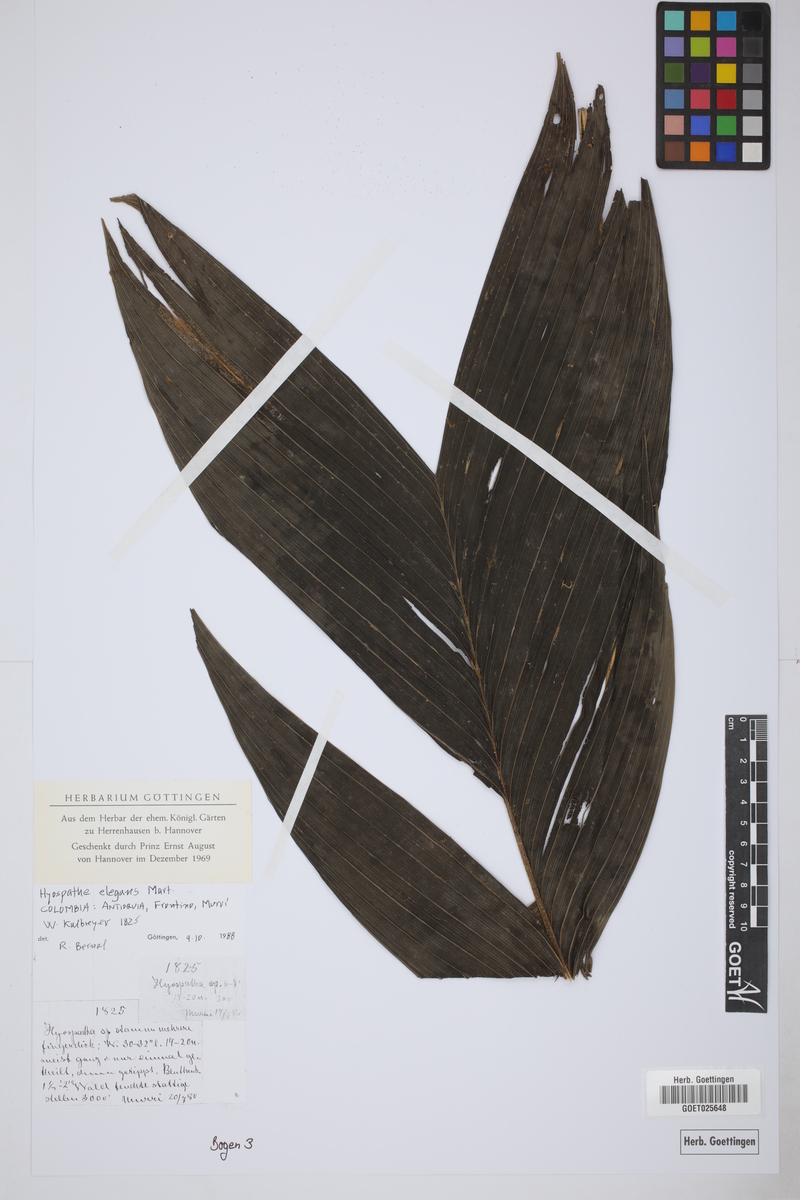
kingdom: Plantae
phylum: Tracheophyta
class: Liliopsida
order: Arecales
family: Arecaceae
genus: Hyospathe
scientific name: Hyospathe elegans
